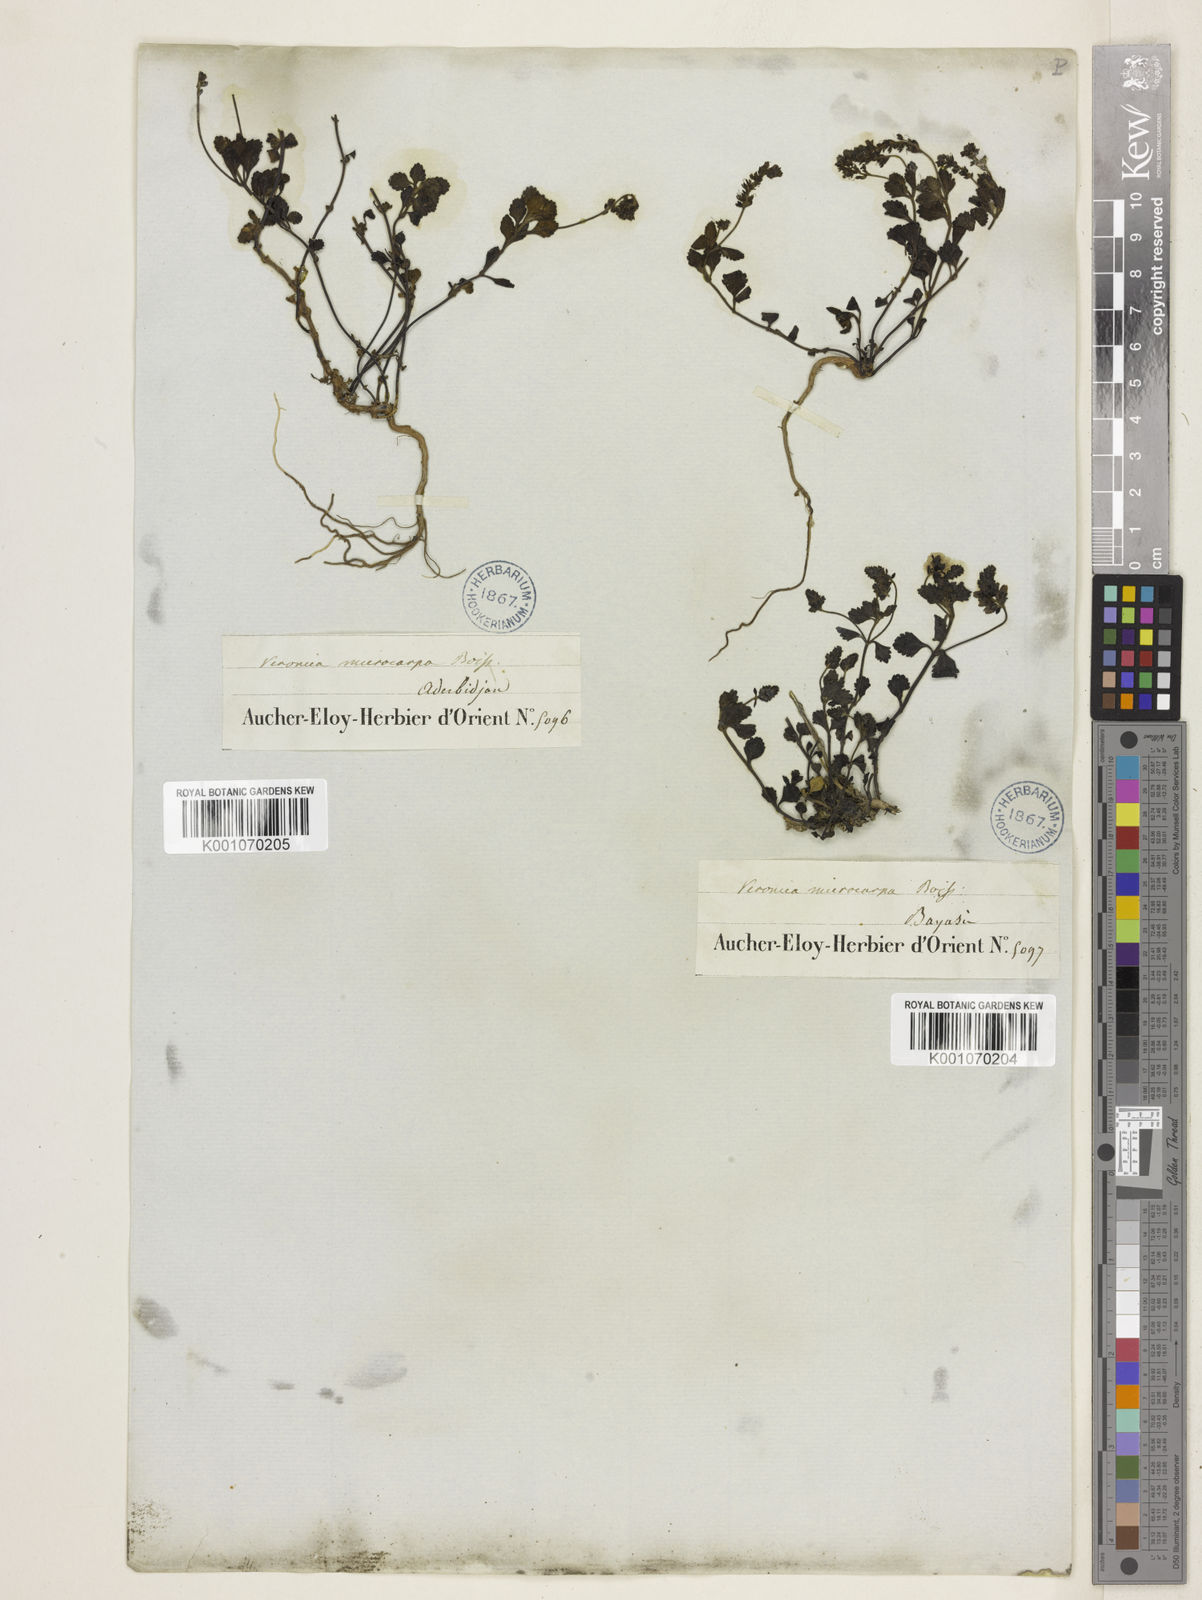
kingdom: Plantae
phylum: Tracheophyta
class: Magnoliopsida
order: Lamiales
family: Plantaginaceae
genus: Veronica
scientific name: Veronica microcarpa
